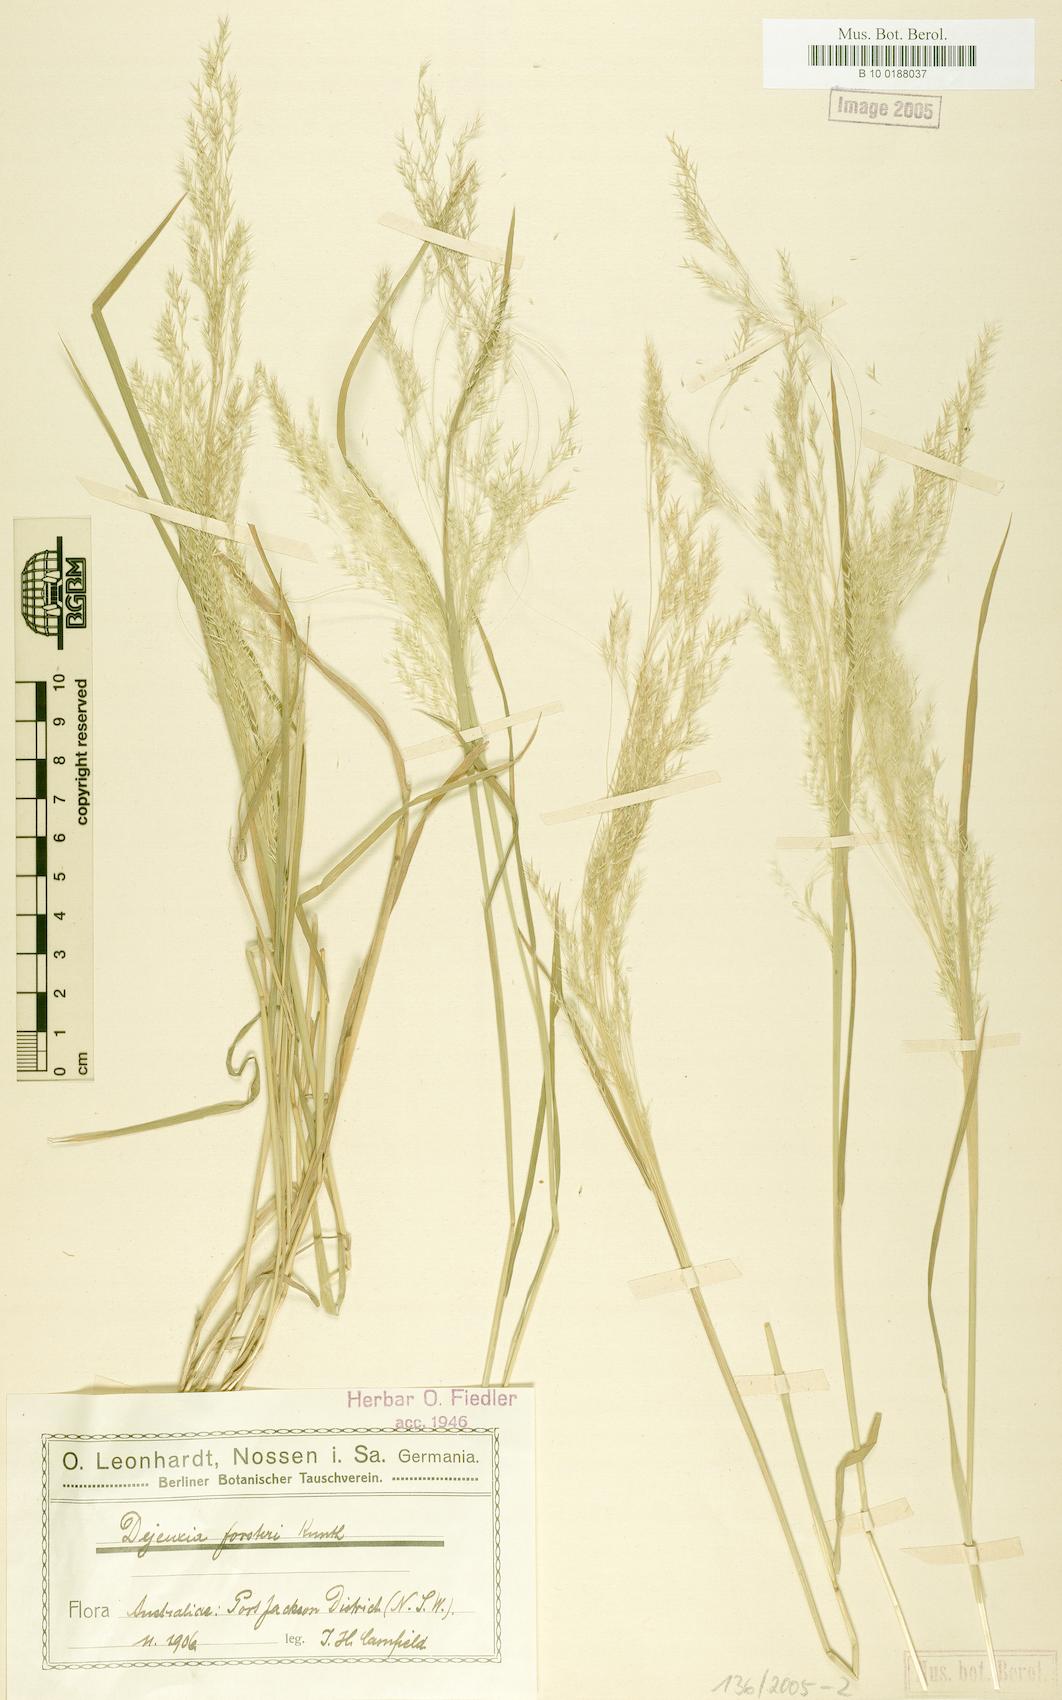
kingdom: Plantae
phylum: Tracheophyta
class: Liliopsida
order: Poales
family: Poaceae
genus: Lachnagrostis
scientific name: Lachnagrostis filiformis
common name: Bentgrass
